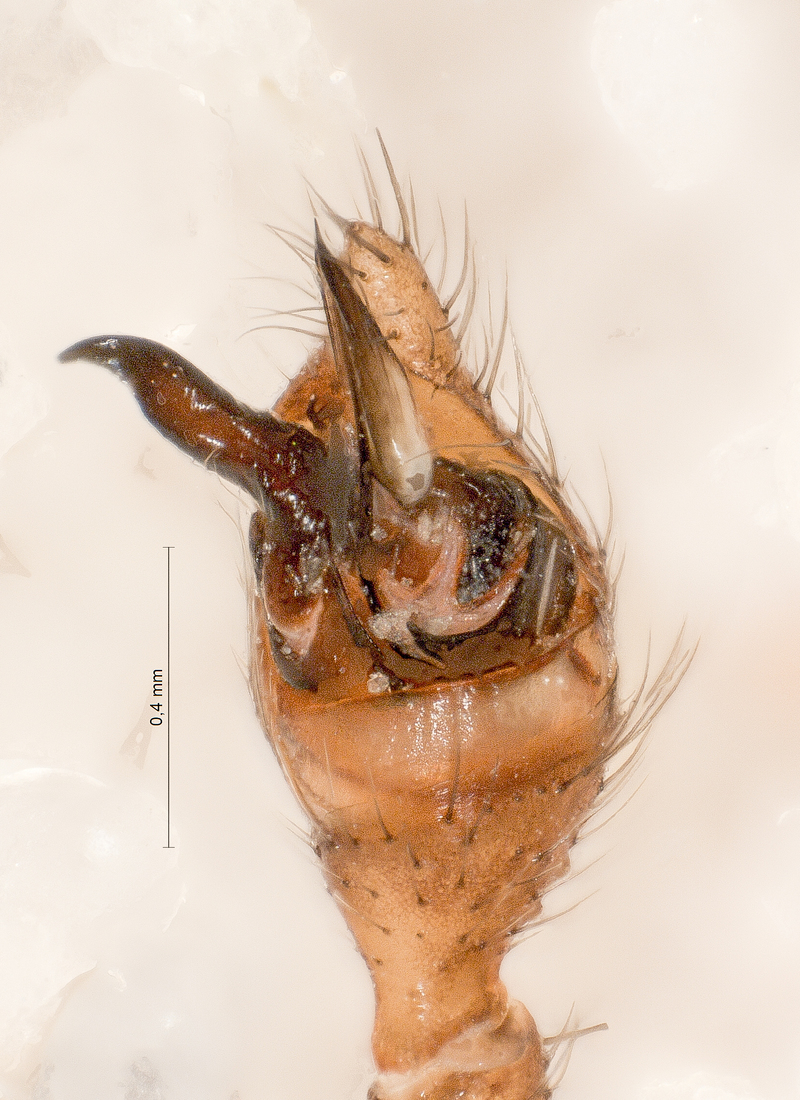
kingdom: Animalia
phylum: Arthropoda
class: Arachnida
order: Araneae
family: Theridiidae
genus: Steatoda
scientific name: Steatoda albomaculata
